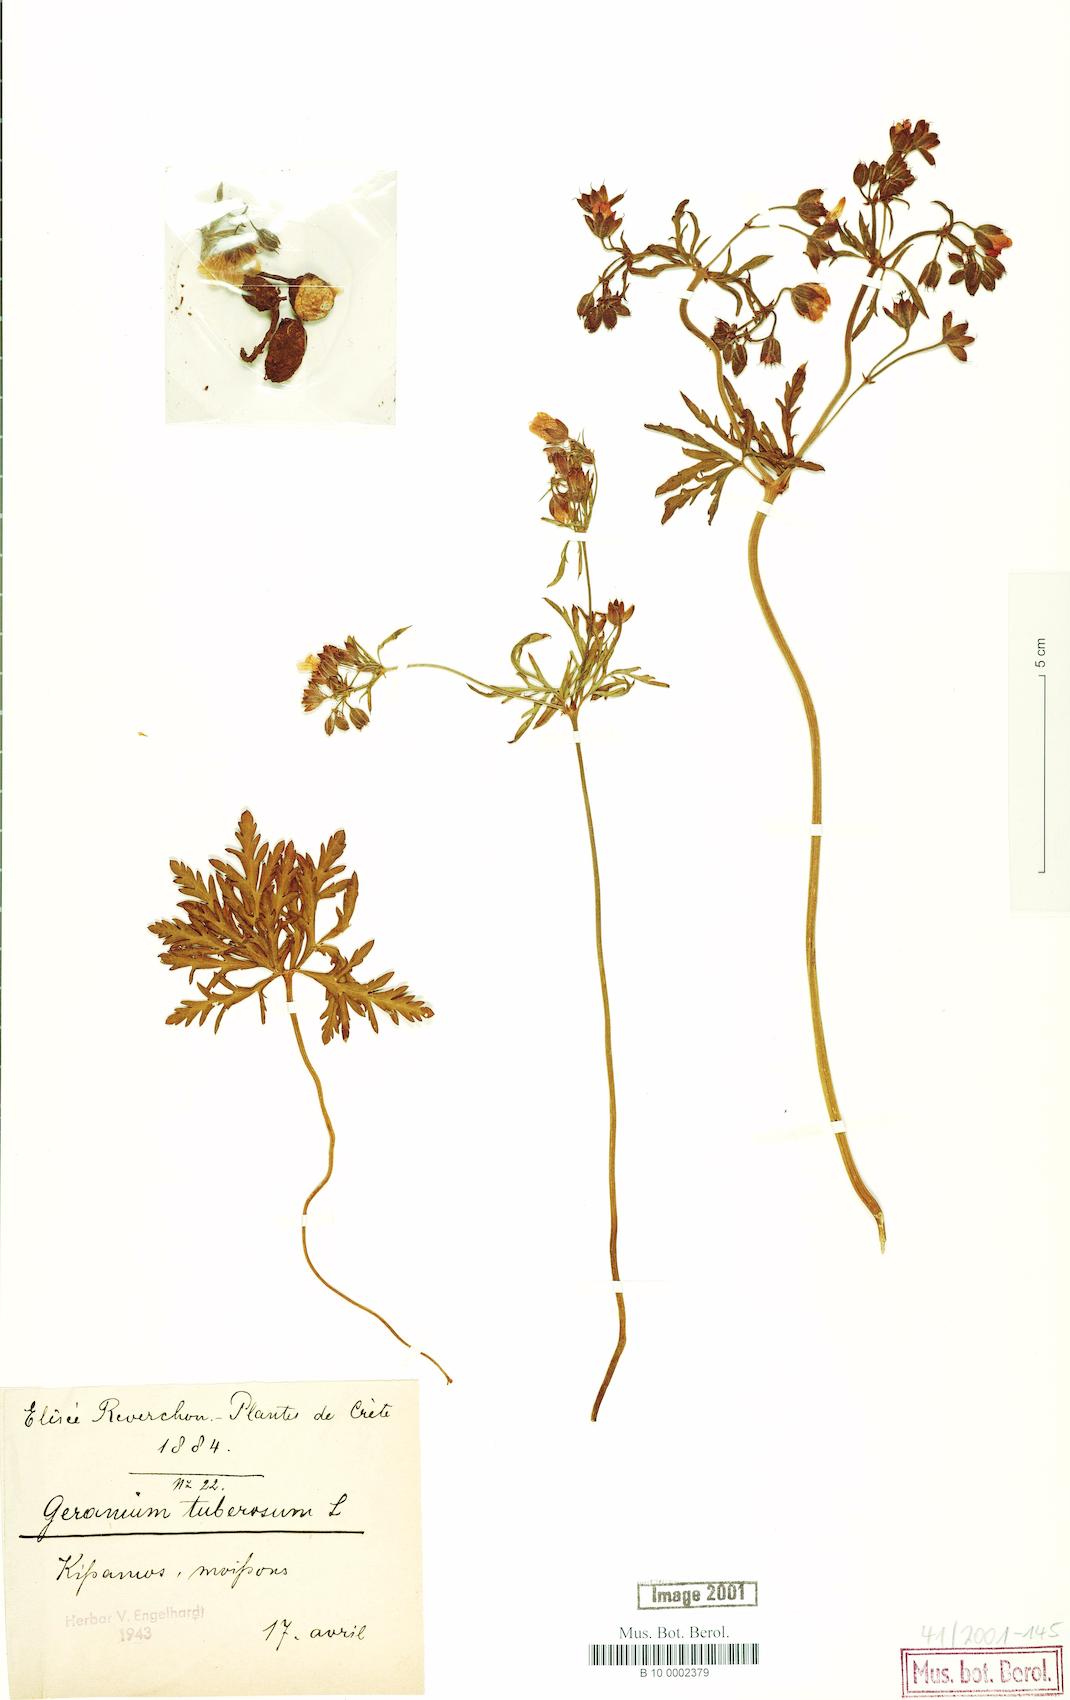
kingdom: Plantae
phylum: Tracheophyta
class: Magnoliopsida
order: Geraniales
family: Geraniaceae
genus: Geranium
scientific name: Geranium tuberosum
